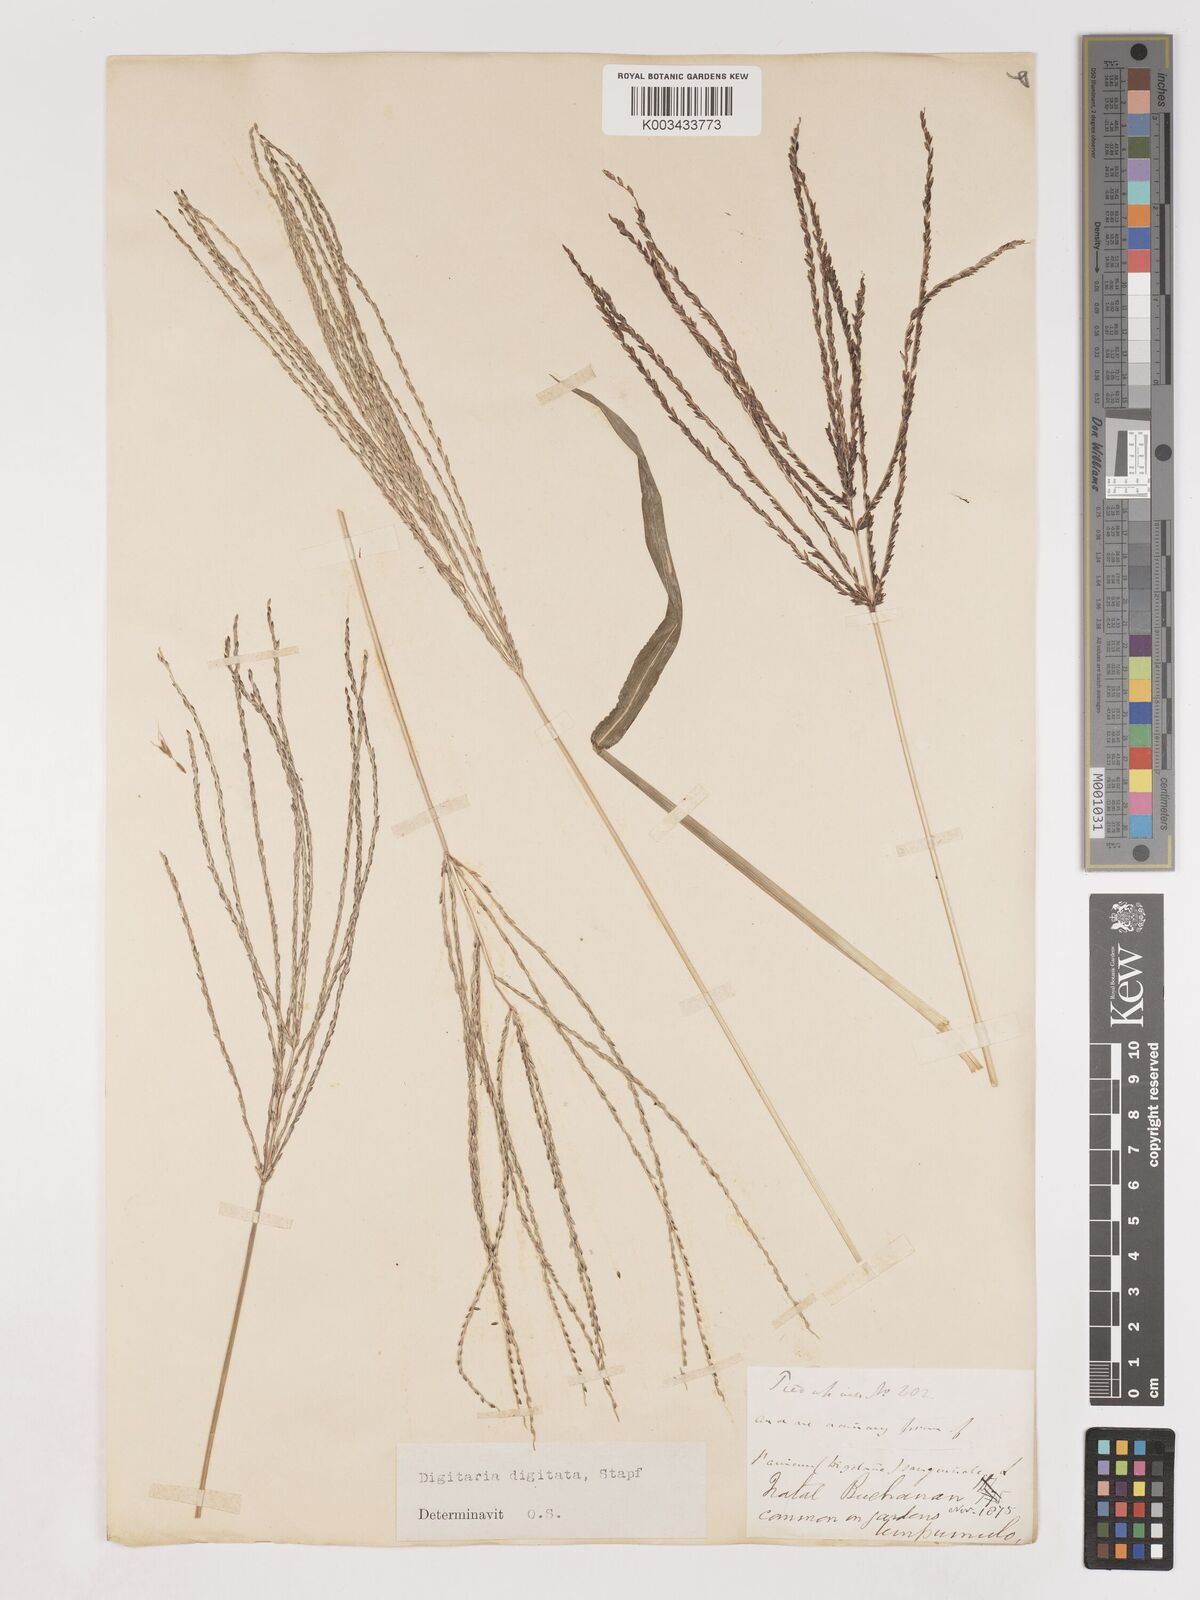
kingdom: Plantae
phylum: Tracheophyta
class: Liliopsida
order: Poales
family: Poaceae
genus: Digitaria
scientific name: Digitaria ciliaris
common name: Tropical finger-grass
